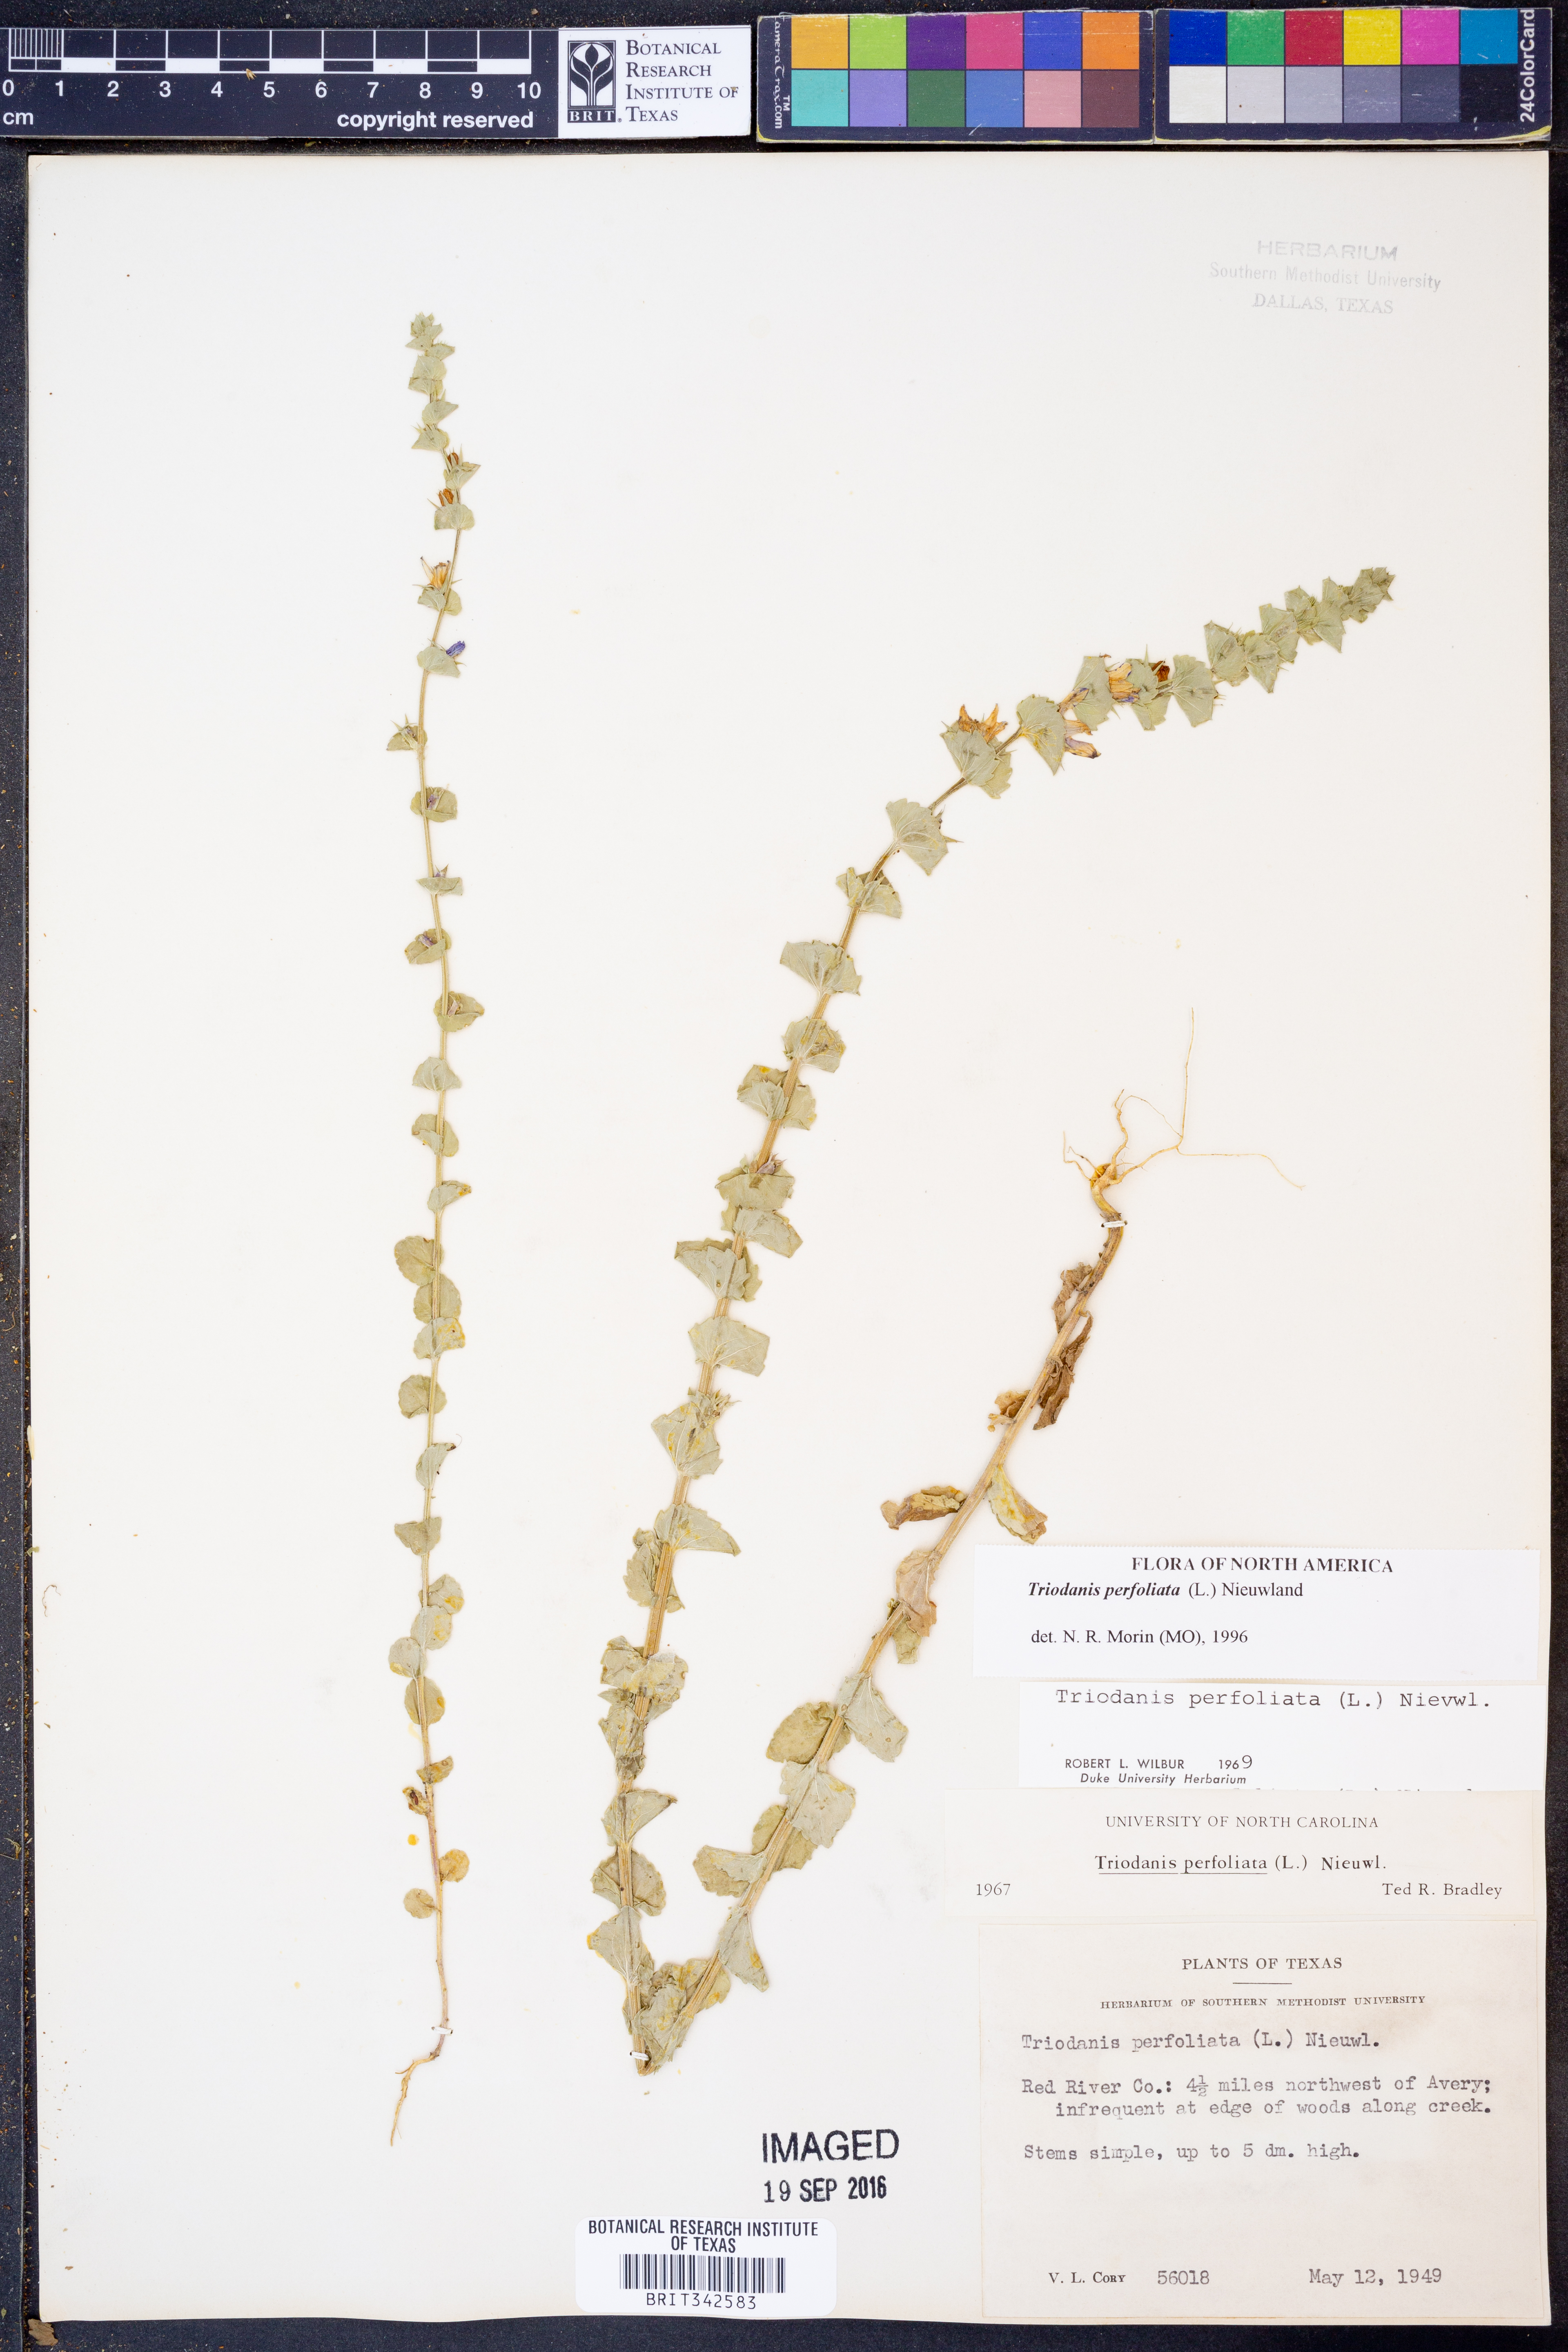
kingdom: Plantae
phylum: Tracheophyta
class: Magnoliopsida
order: Asterales
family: Campanulaceae
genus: Triodanis
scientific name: Triodanis perfoliata
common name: Clasping venus' looking-glass
